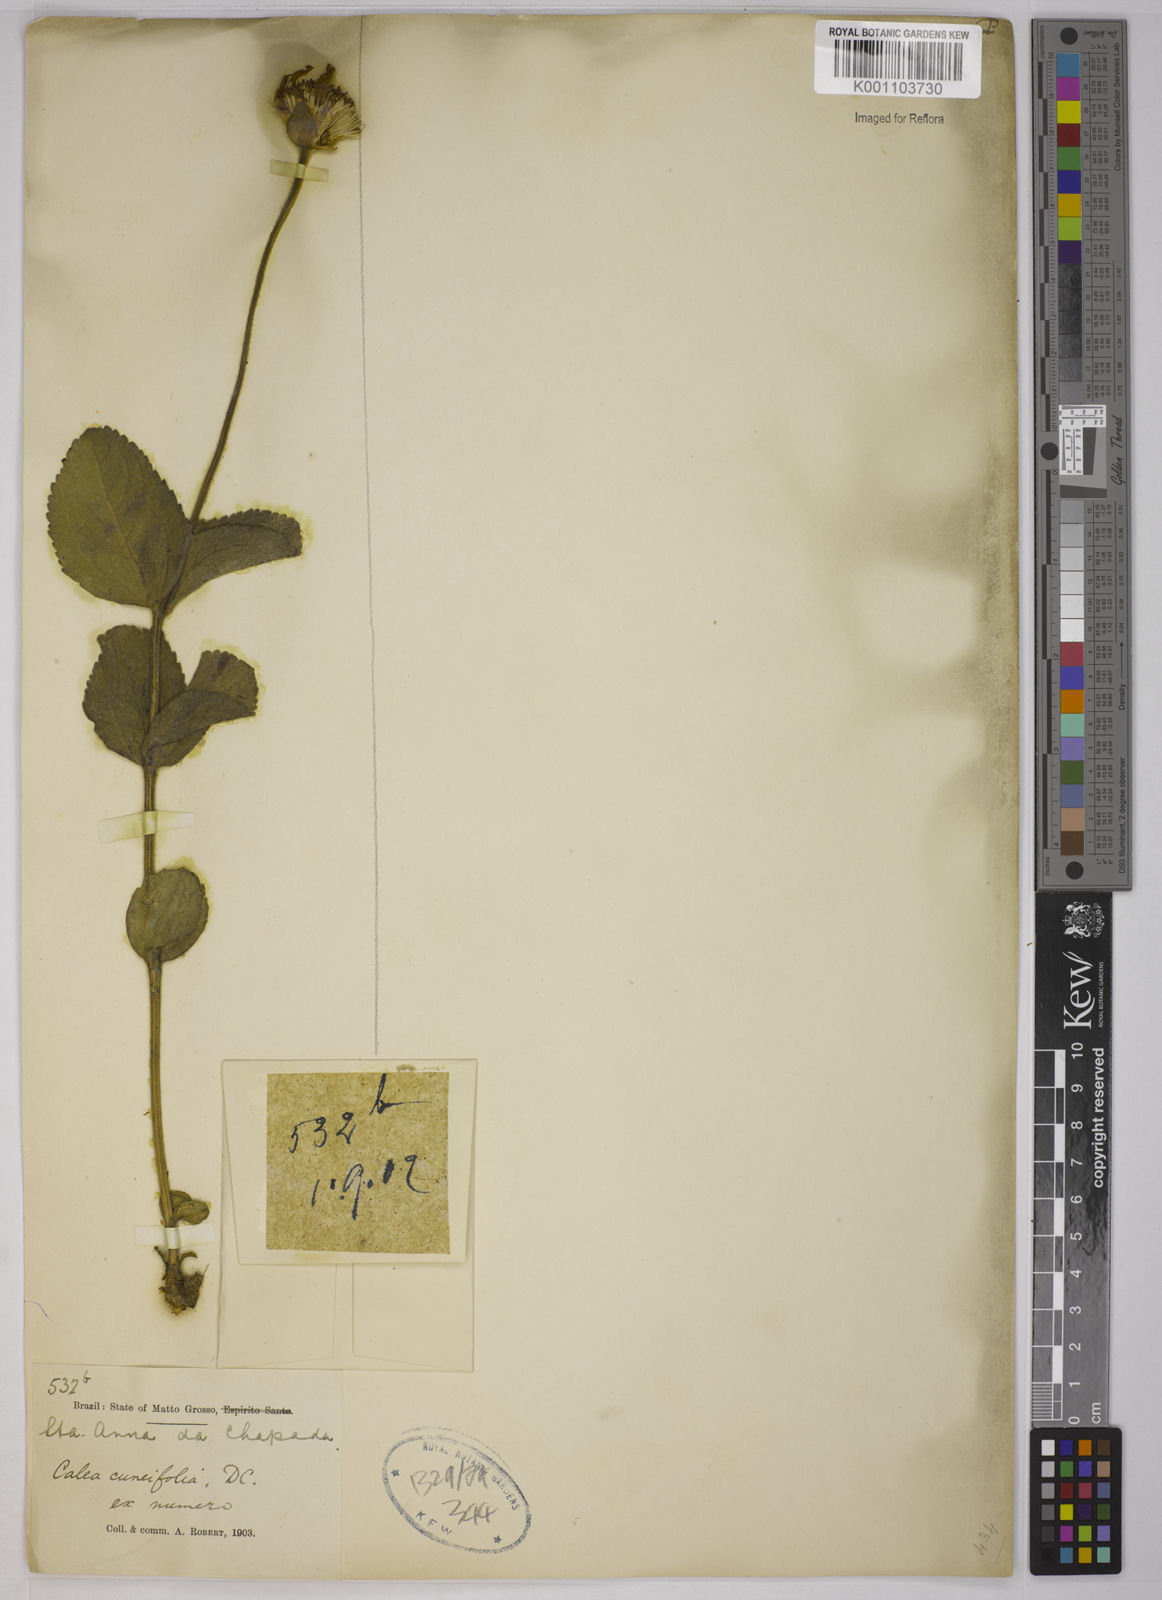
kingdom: Plantae
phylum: Tracheophyta
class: Magnoliopsida
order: Asterales
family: Asteraceae
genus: Calea
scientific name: Calea cuneifolia
